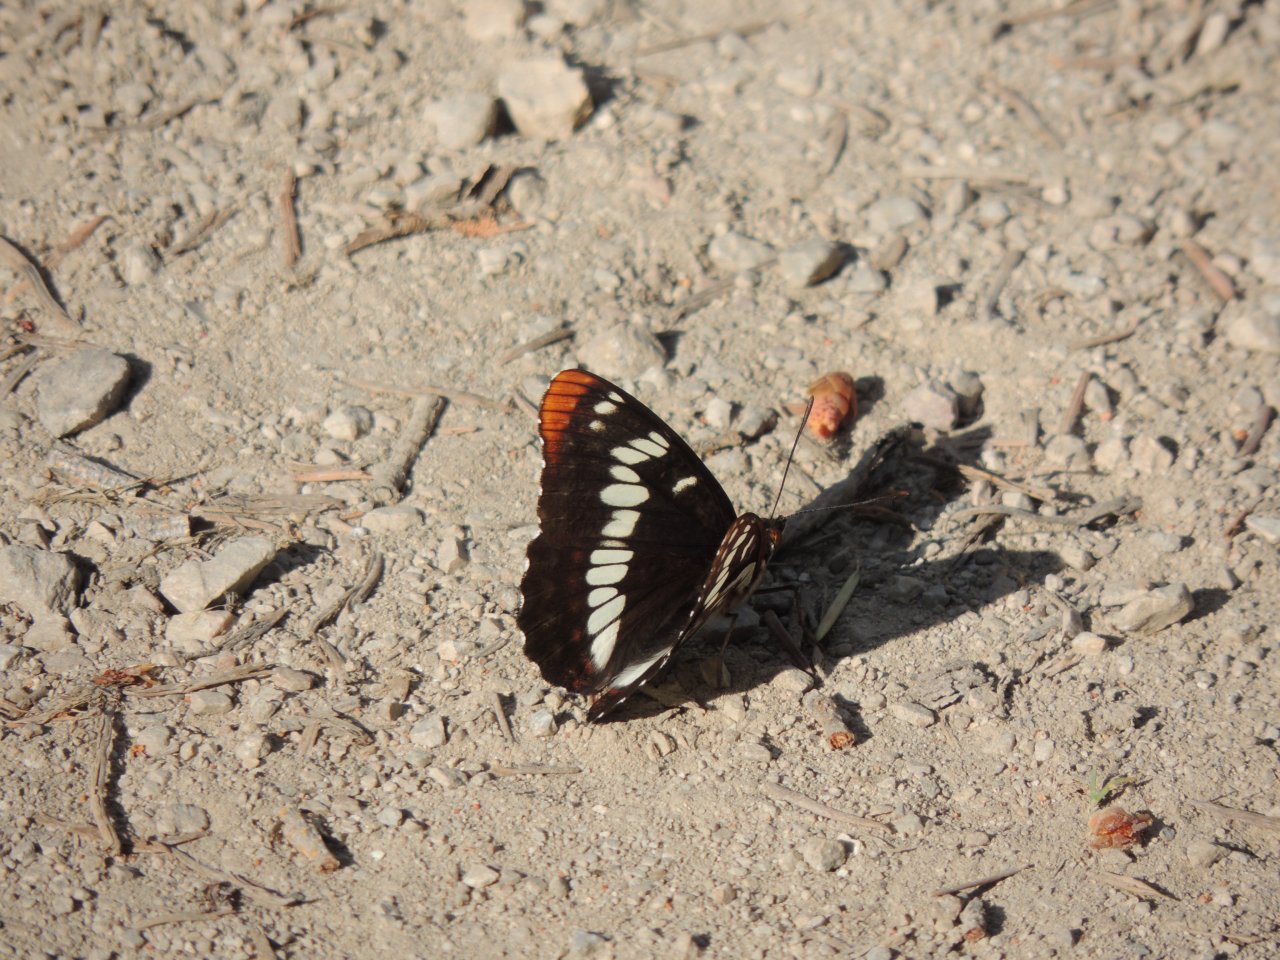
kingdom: Animalia
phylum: Arthropoda
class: Insecta
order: Lepidoptera
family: Nymphalidae
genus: Limenitis
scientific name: Limenitis lorquini
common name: Lorquin's Admiral
